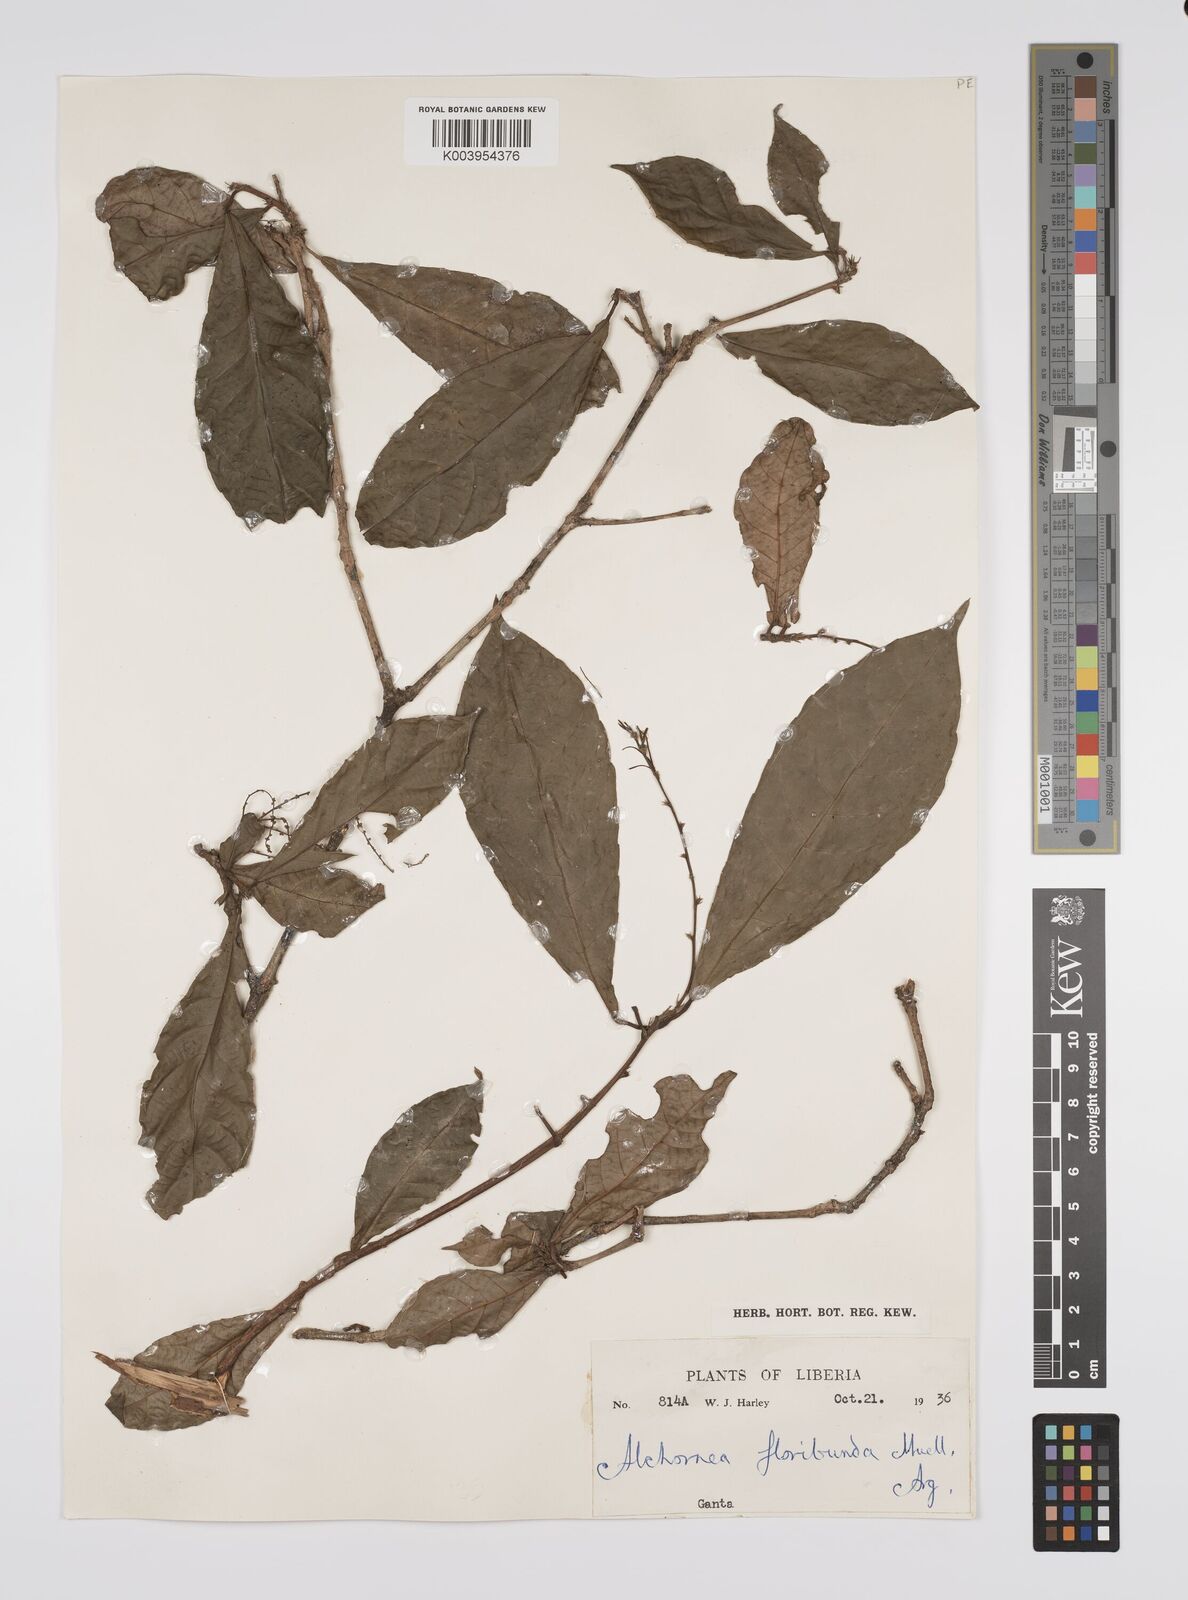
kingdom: Plantae
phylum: Tracheophyta
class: Magnoliopsida
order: Malpighiales
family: Euphorbiaceae
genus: Alchornea
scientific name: Alchornea floribunda
